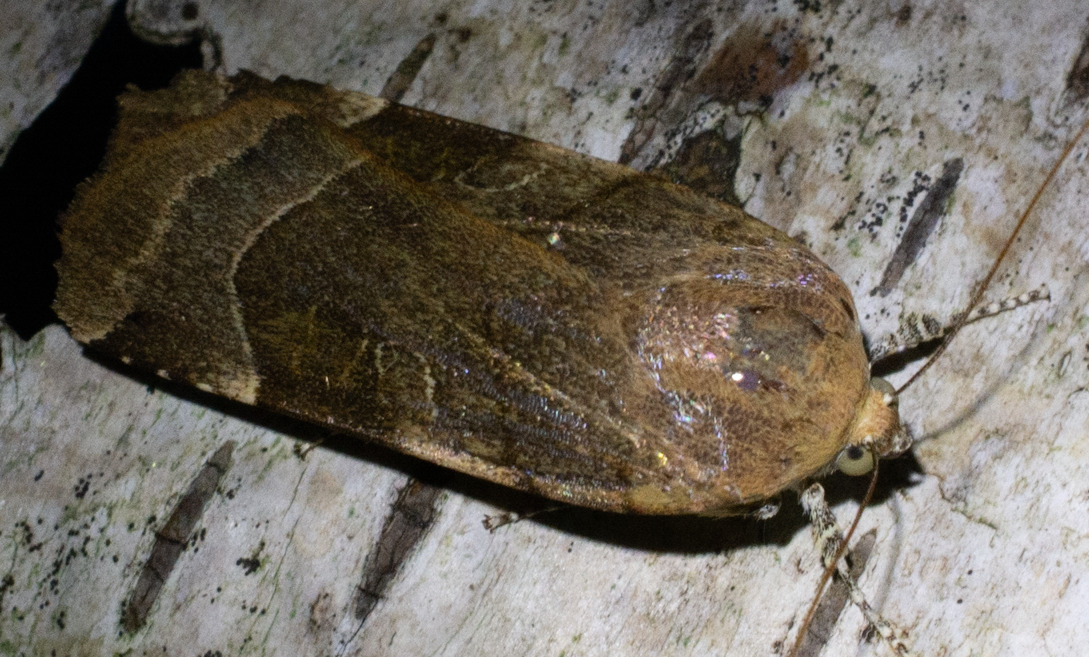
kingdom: Animalia
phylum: Arthropoda
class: Insecta
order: Lepidoptera
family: Noctuidae
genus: Noctua
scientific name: Noctua fimbriata
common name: Gul båndugle
